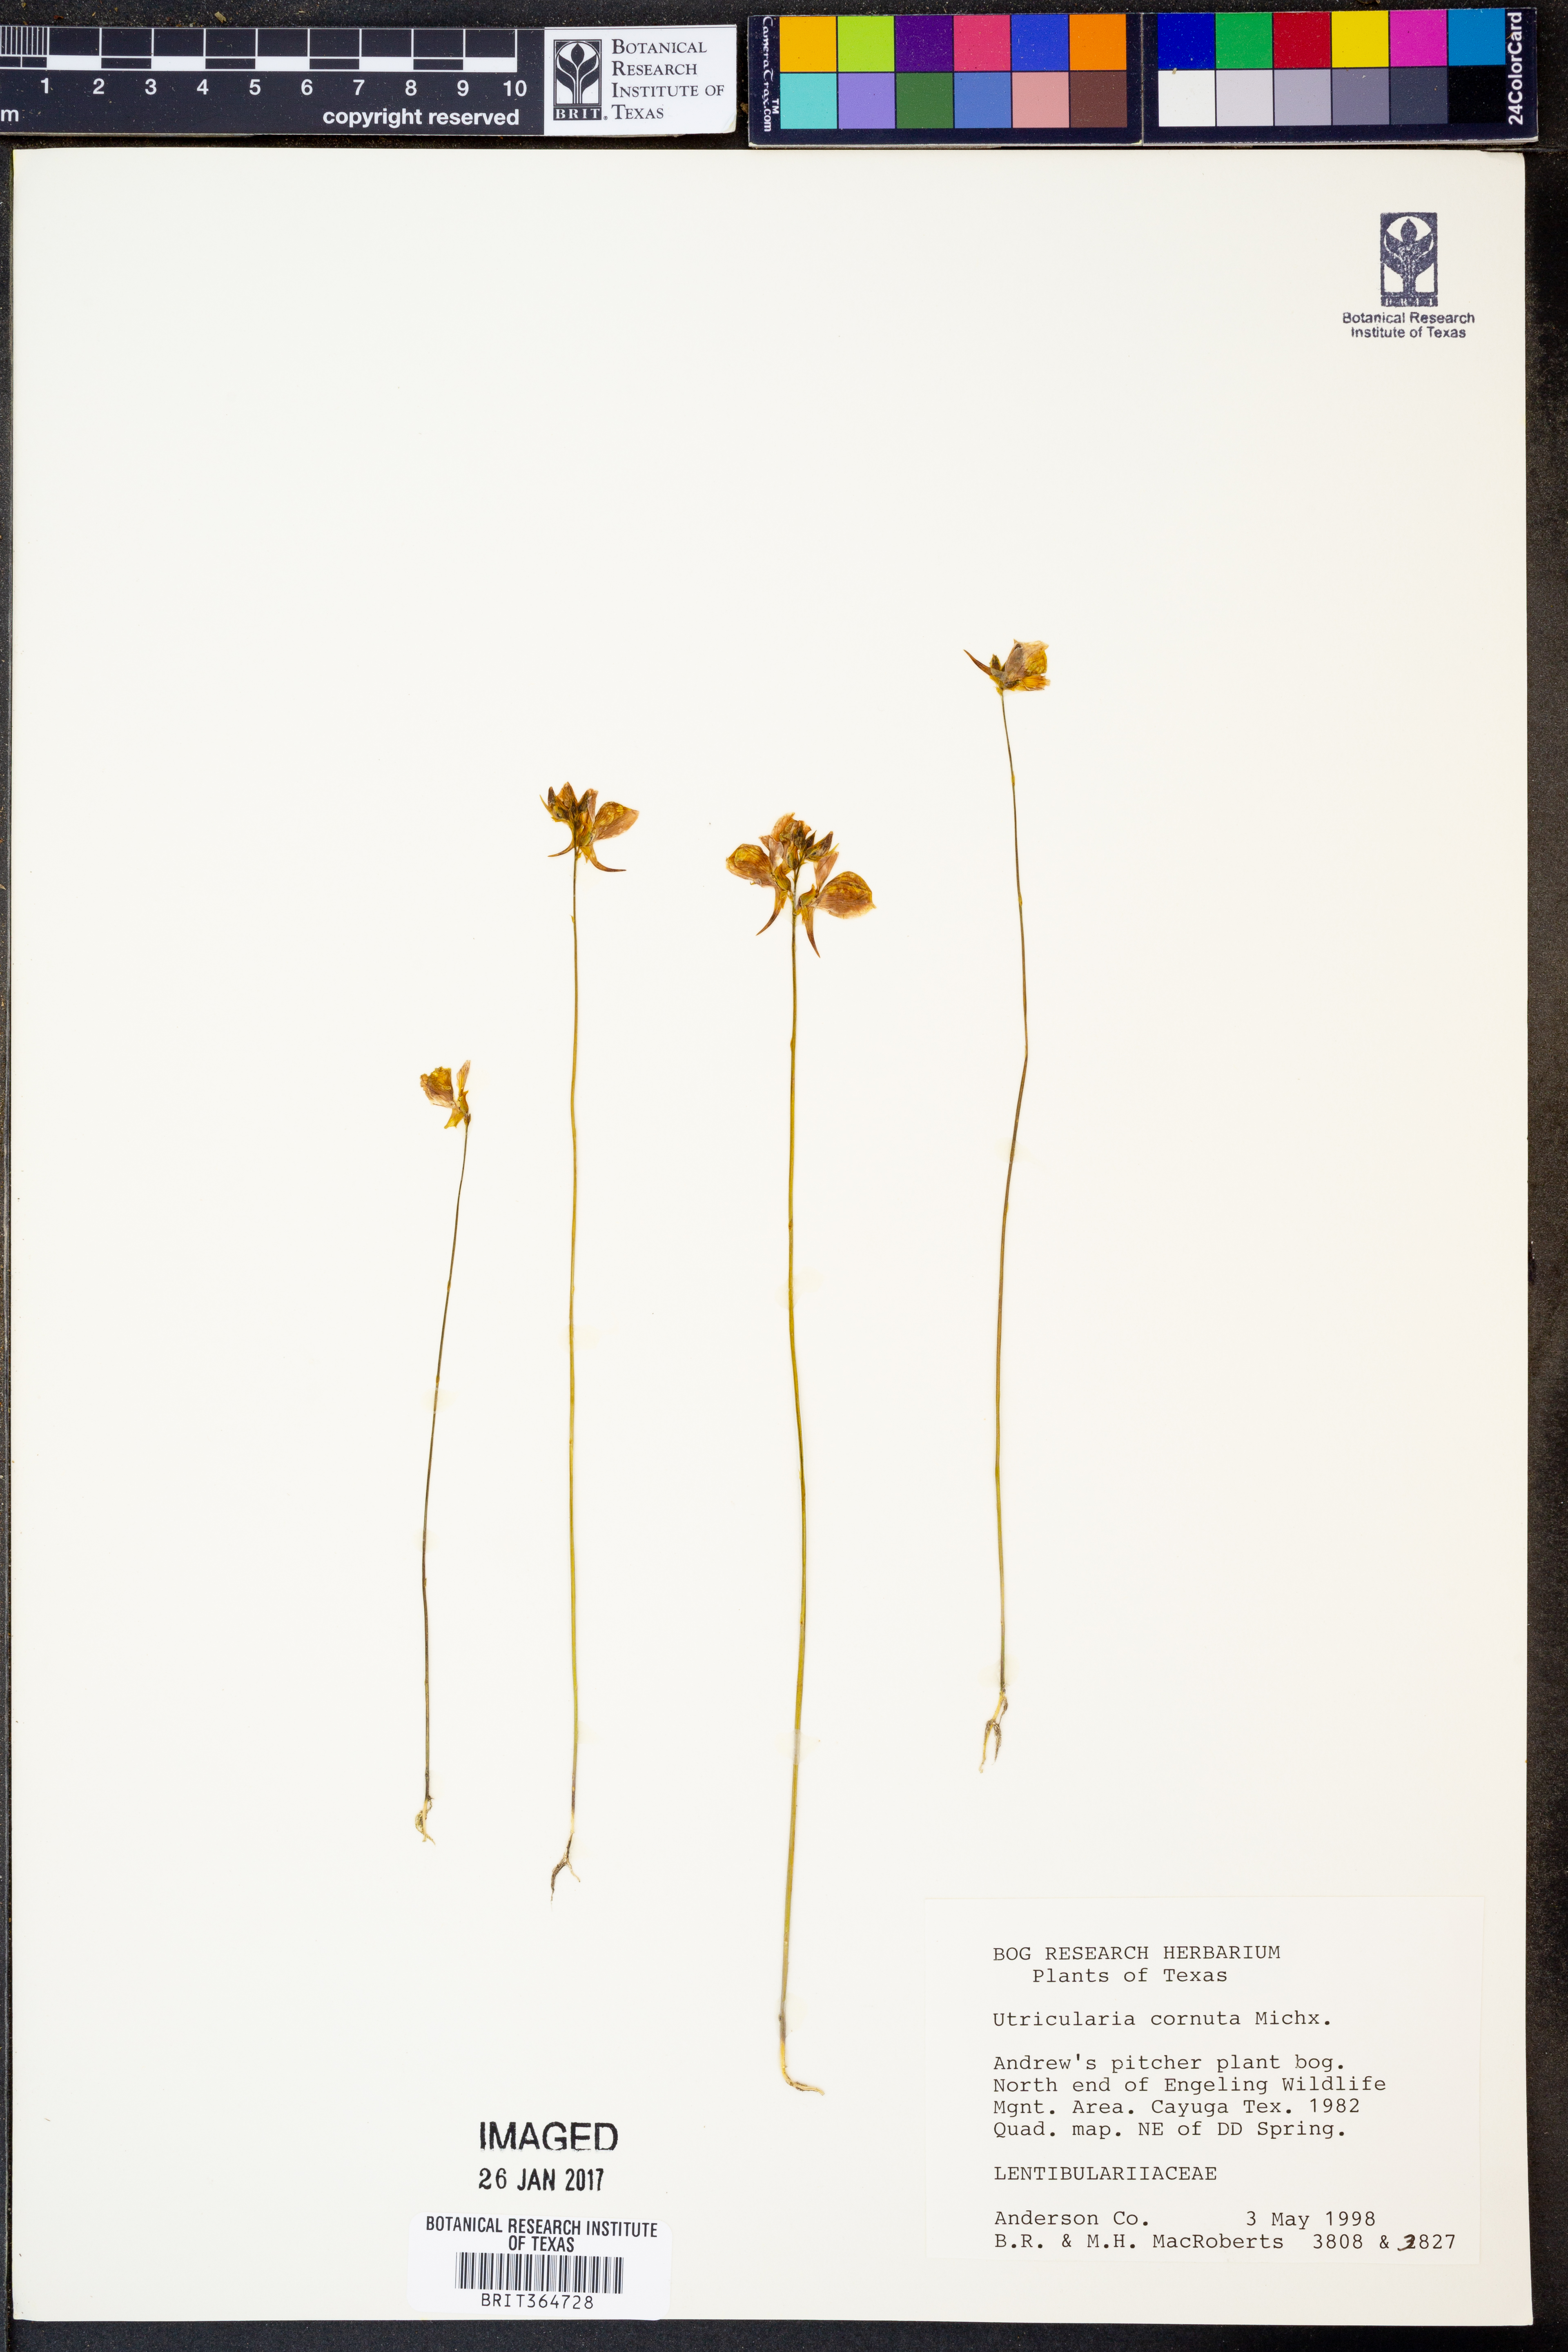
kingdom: Plantae
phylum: Tracheophyta
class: Magnoliopsida
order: Lamiales
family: Lentibulariaceae
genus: Utricularia
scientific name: Utricularia cornuta
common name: Horned bladderwort
